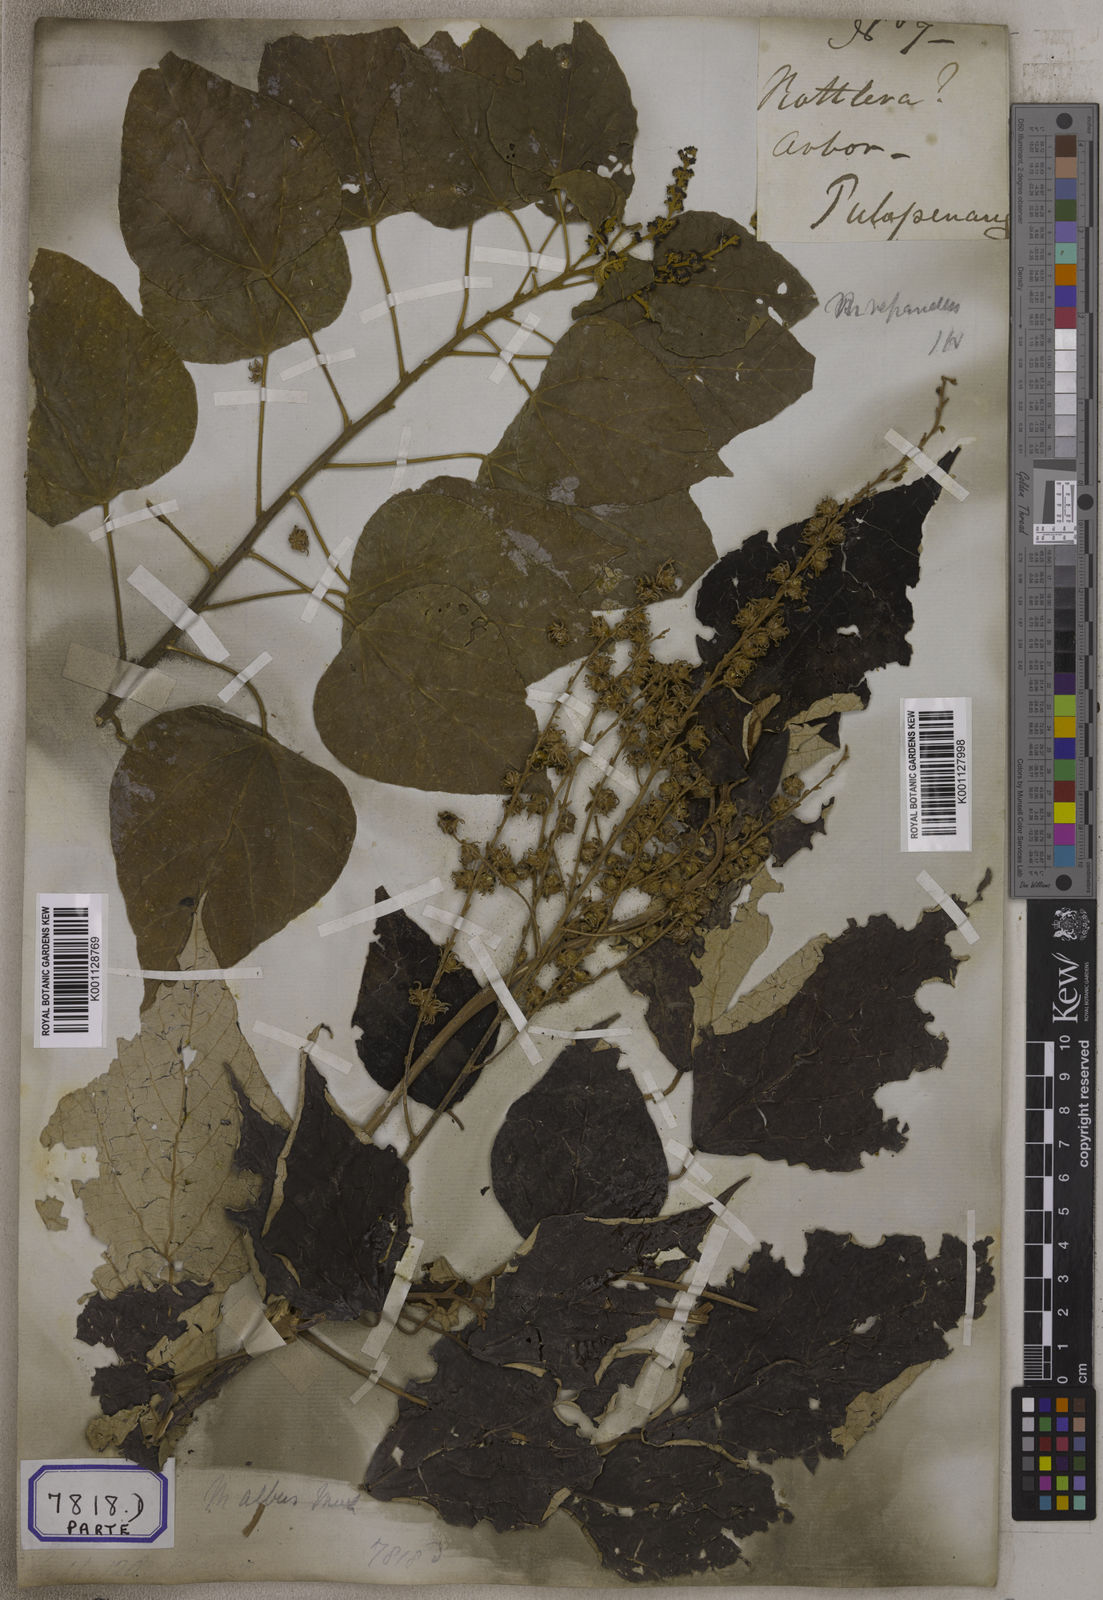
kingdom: Plantae
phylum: Tracheophyta
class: Magnoliopsida
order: Malpighiales
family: Euphorbiaceae
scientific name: Euphorbiaceae
